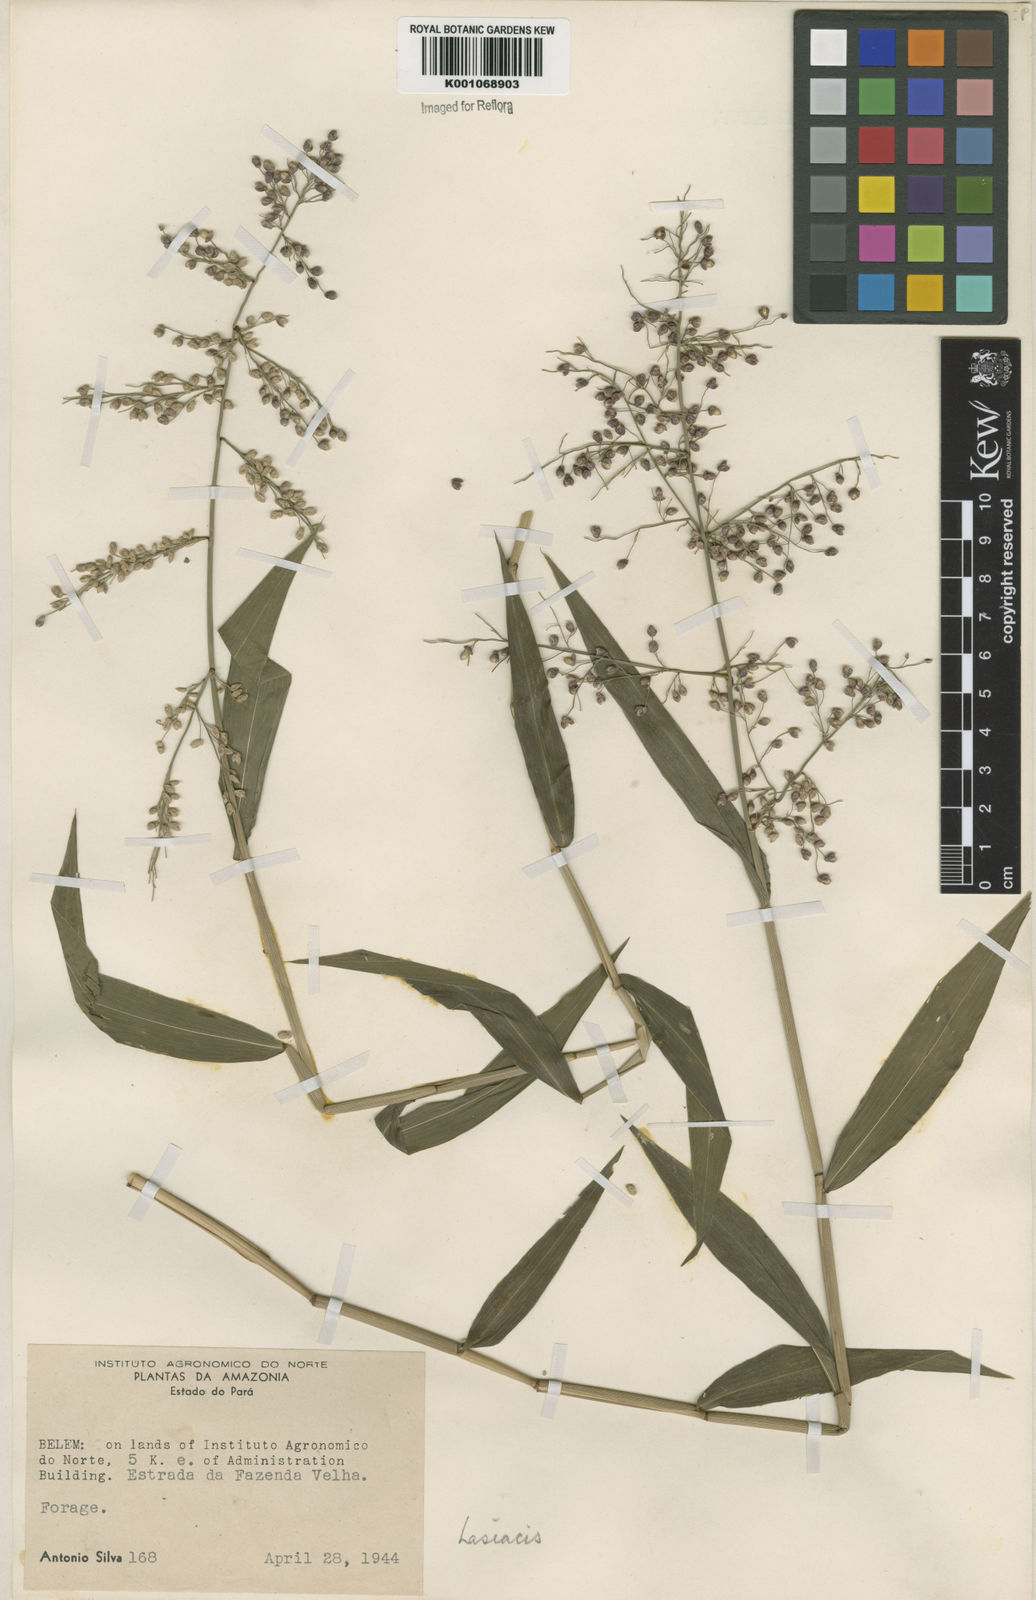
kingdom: Plantae
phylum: Tracheophyta
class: Liliopsida
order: Poales
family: Poaceae
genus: Lasiacis
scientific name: Lasiacis ligulata
